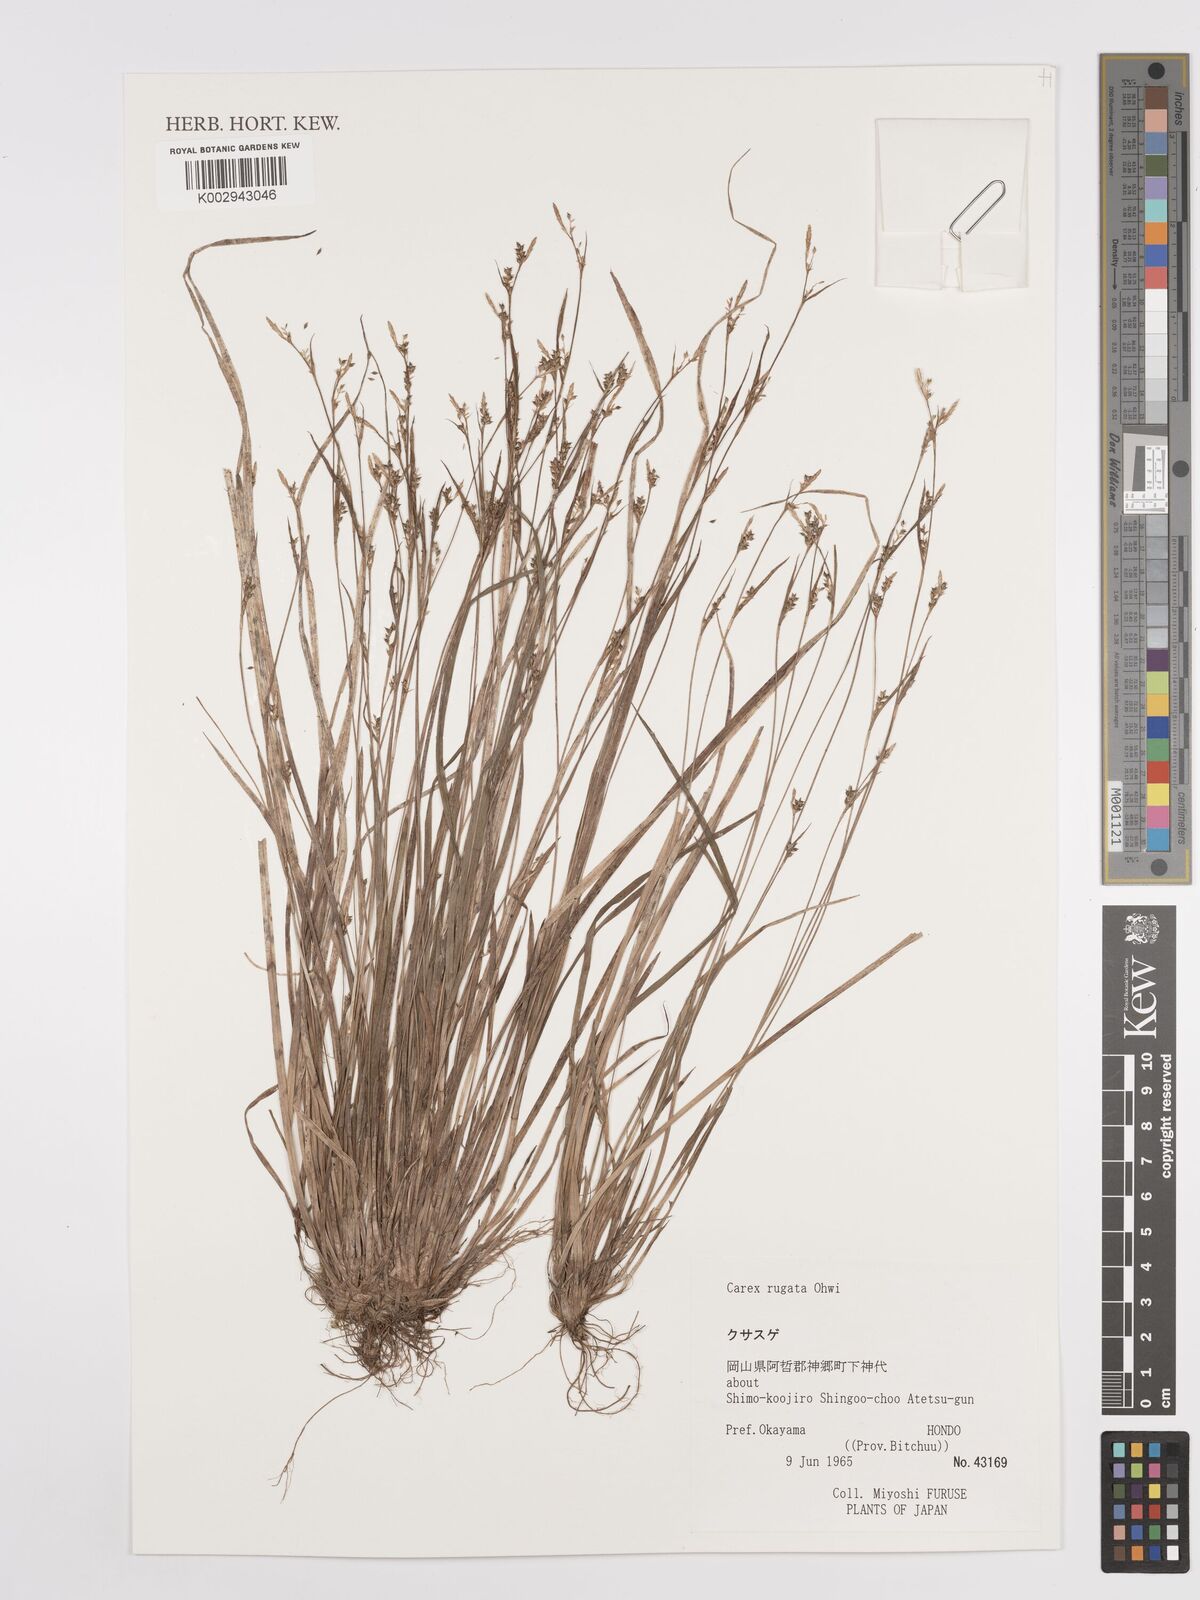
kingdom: Plantae
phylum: Tracheophyta
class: Liliopsida
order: Poales
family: Cyperaceae
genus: Carex
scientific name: Carex rugata
